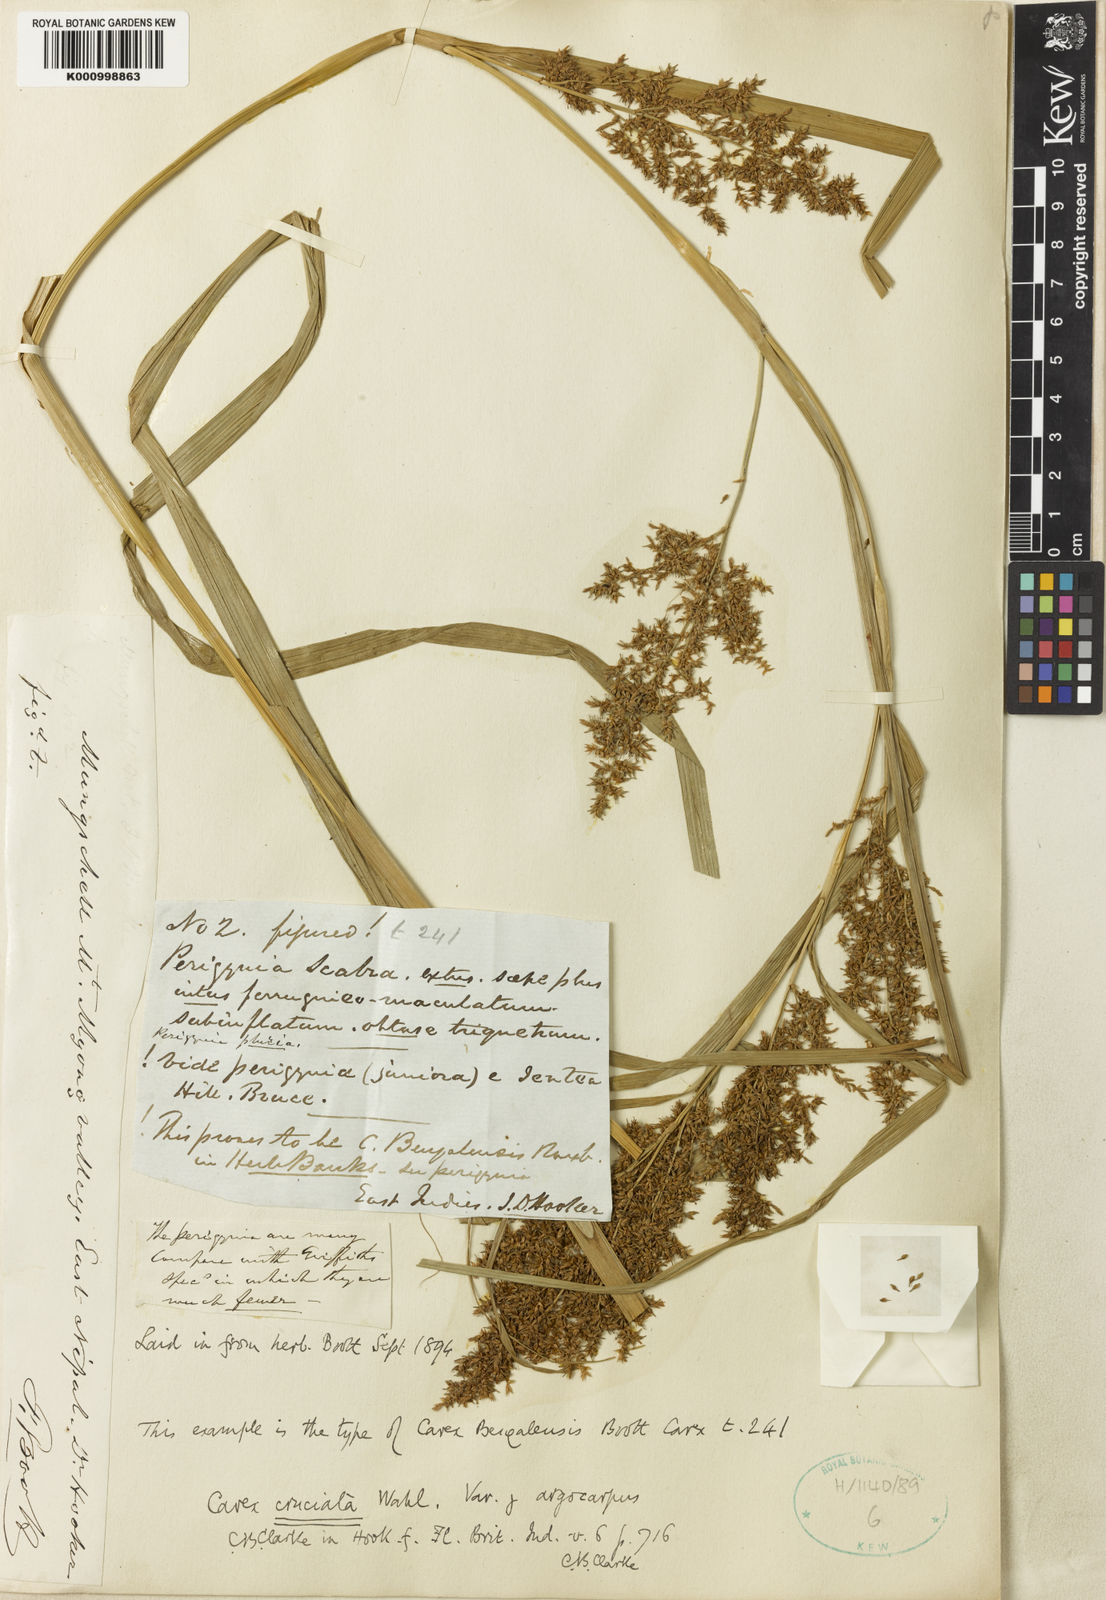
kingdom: Plantae
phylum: Tracheophyta
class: Liliopsida
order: Poales
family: Cyperaceae
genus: Carex
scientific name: Carex cruciata
